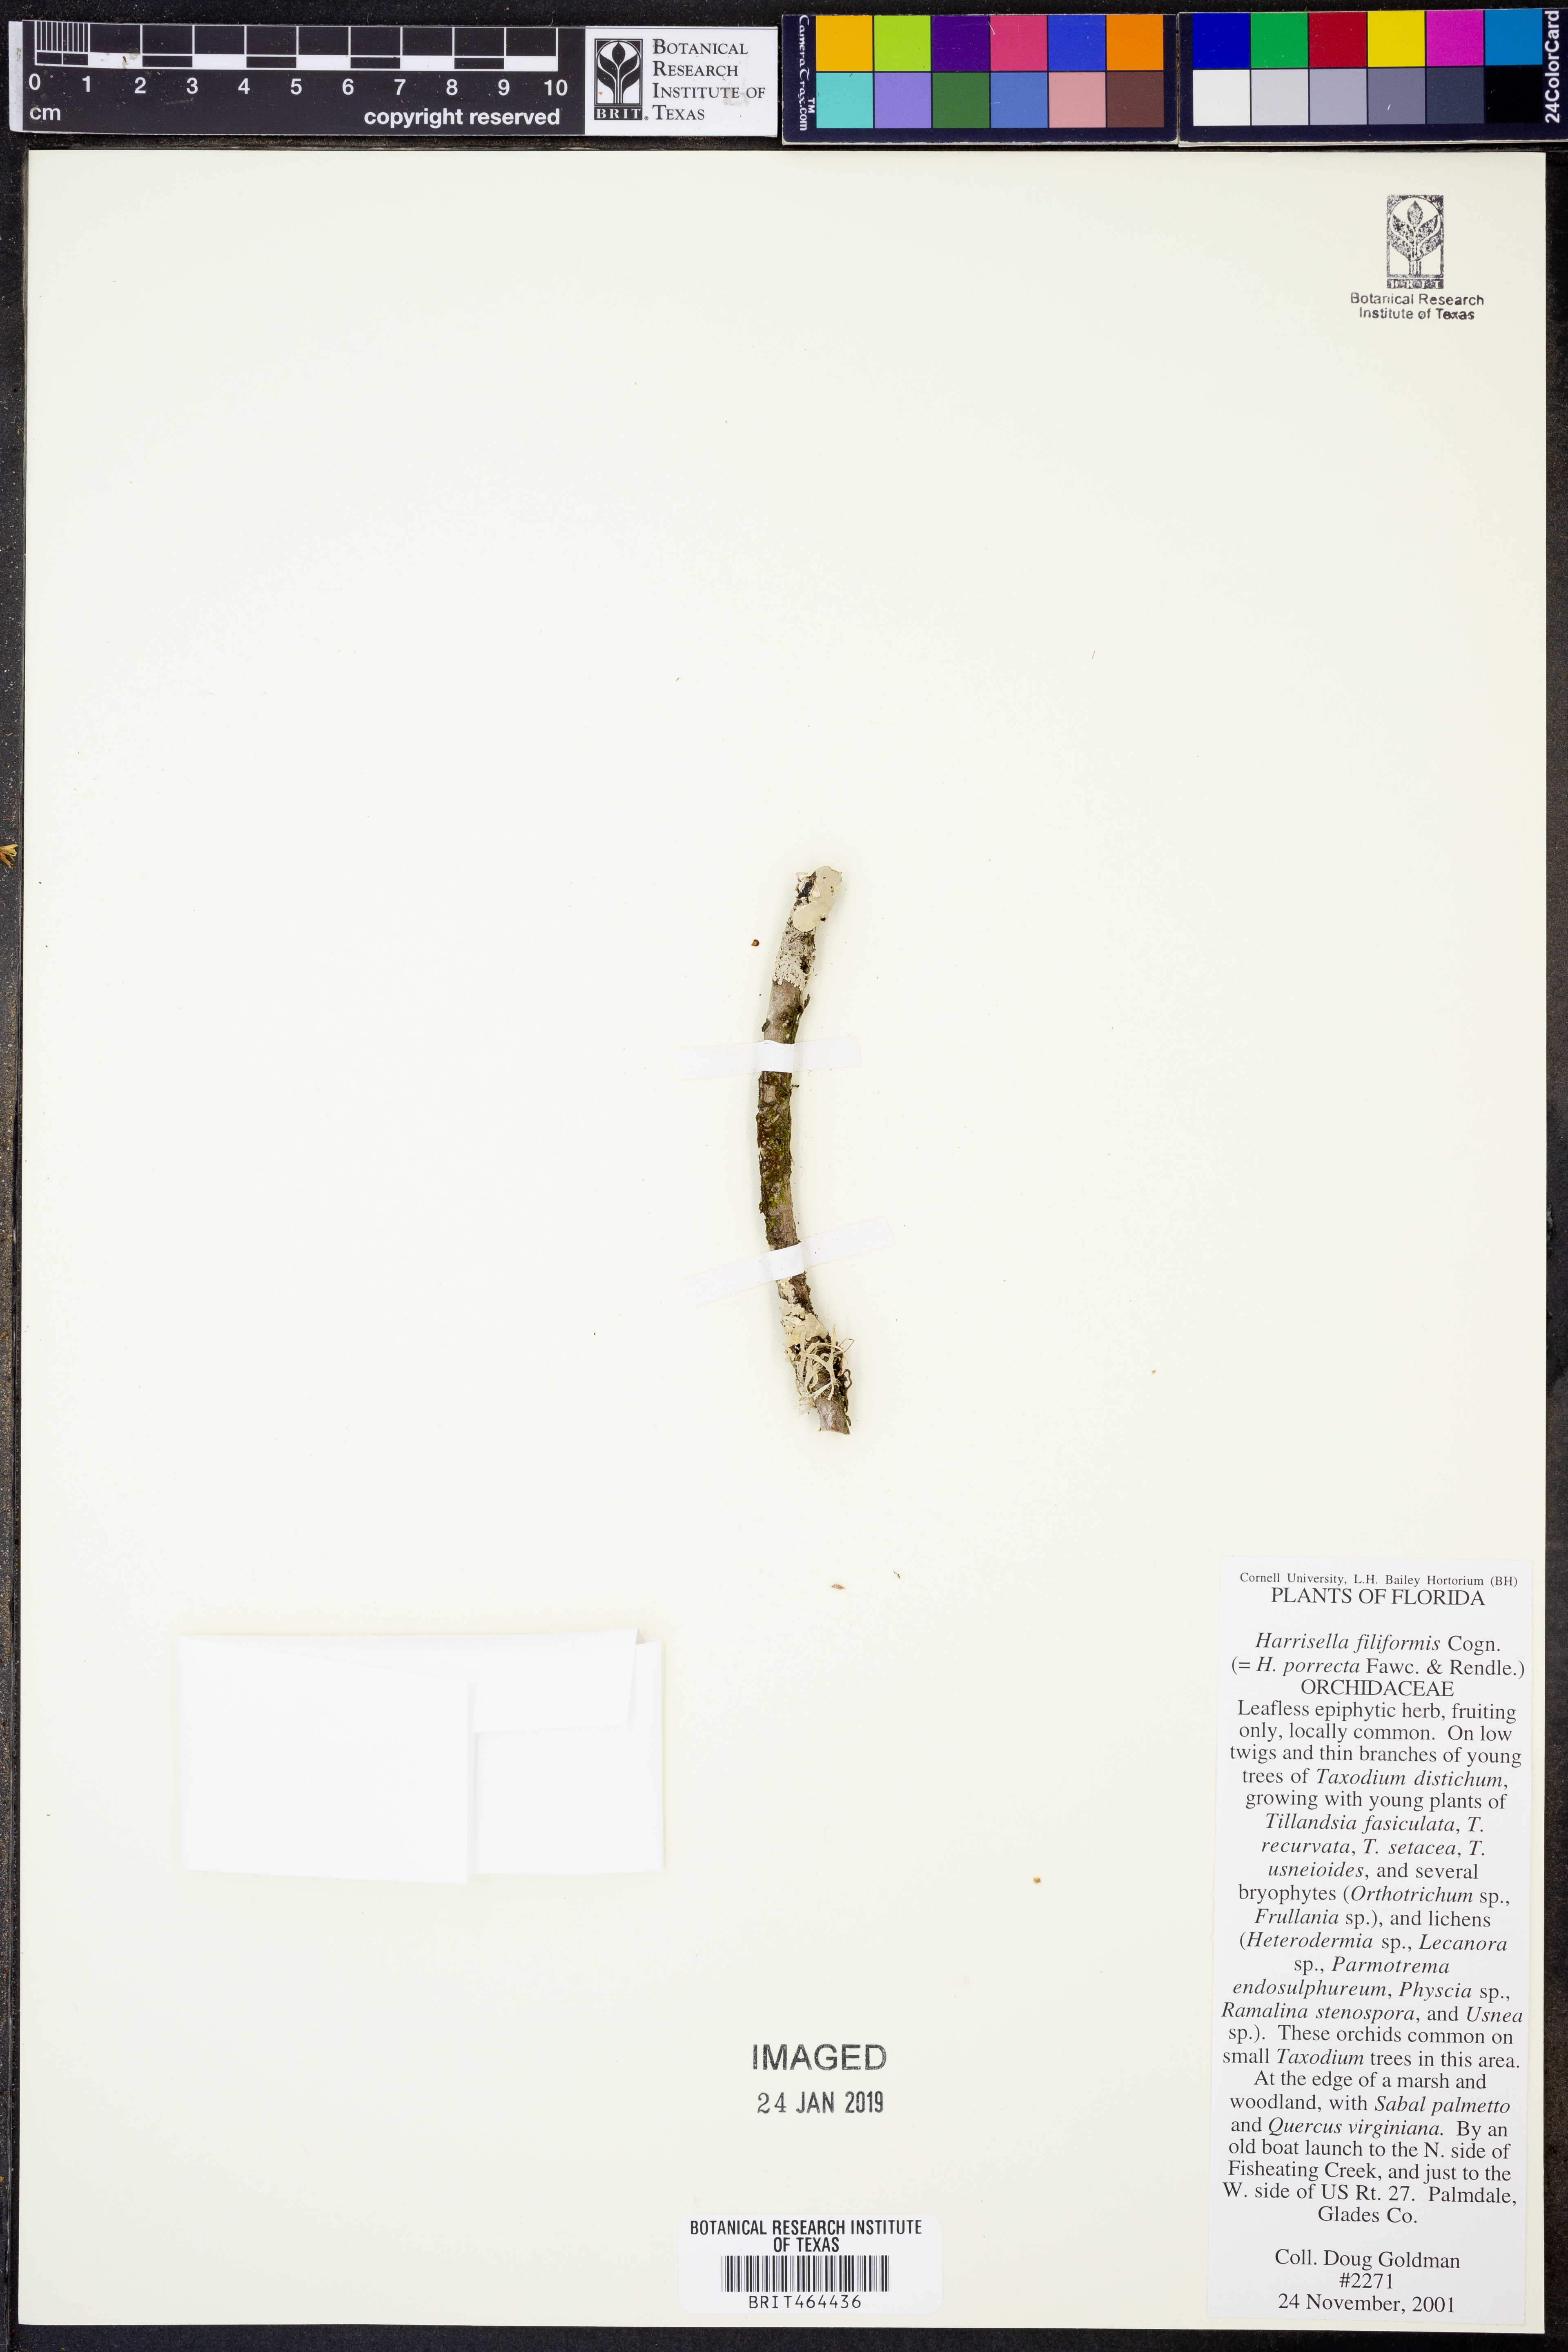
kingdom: Plantae
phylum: Tracheophyta
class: Liliopsida
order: Asparagales
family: Orchidaceae
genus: Dendrophylax
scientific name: Dendrophylax filiformis
